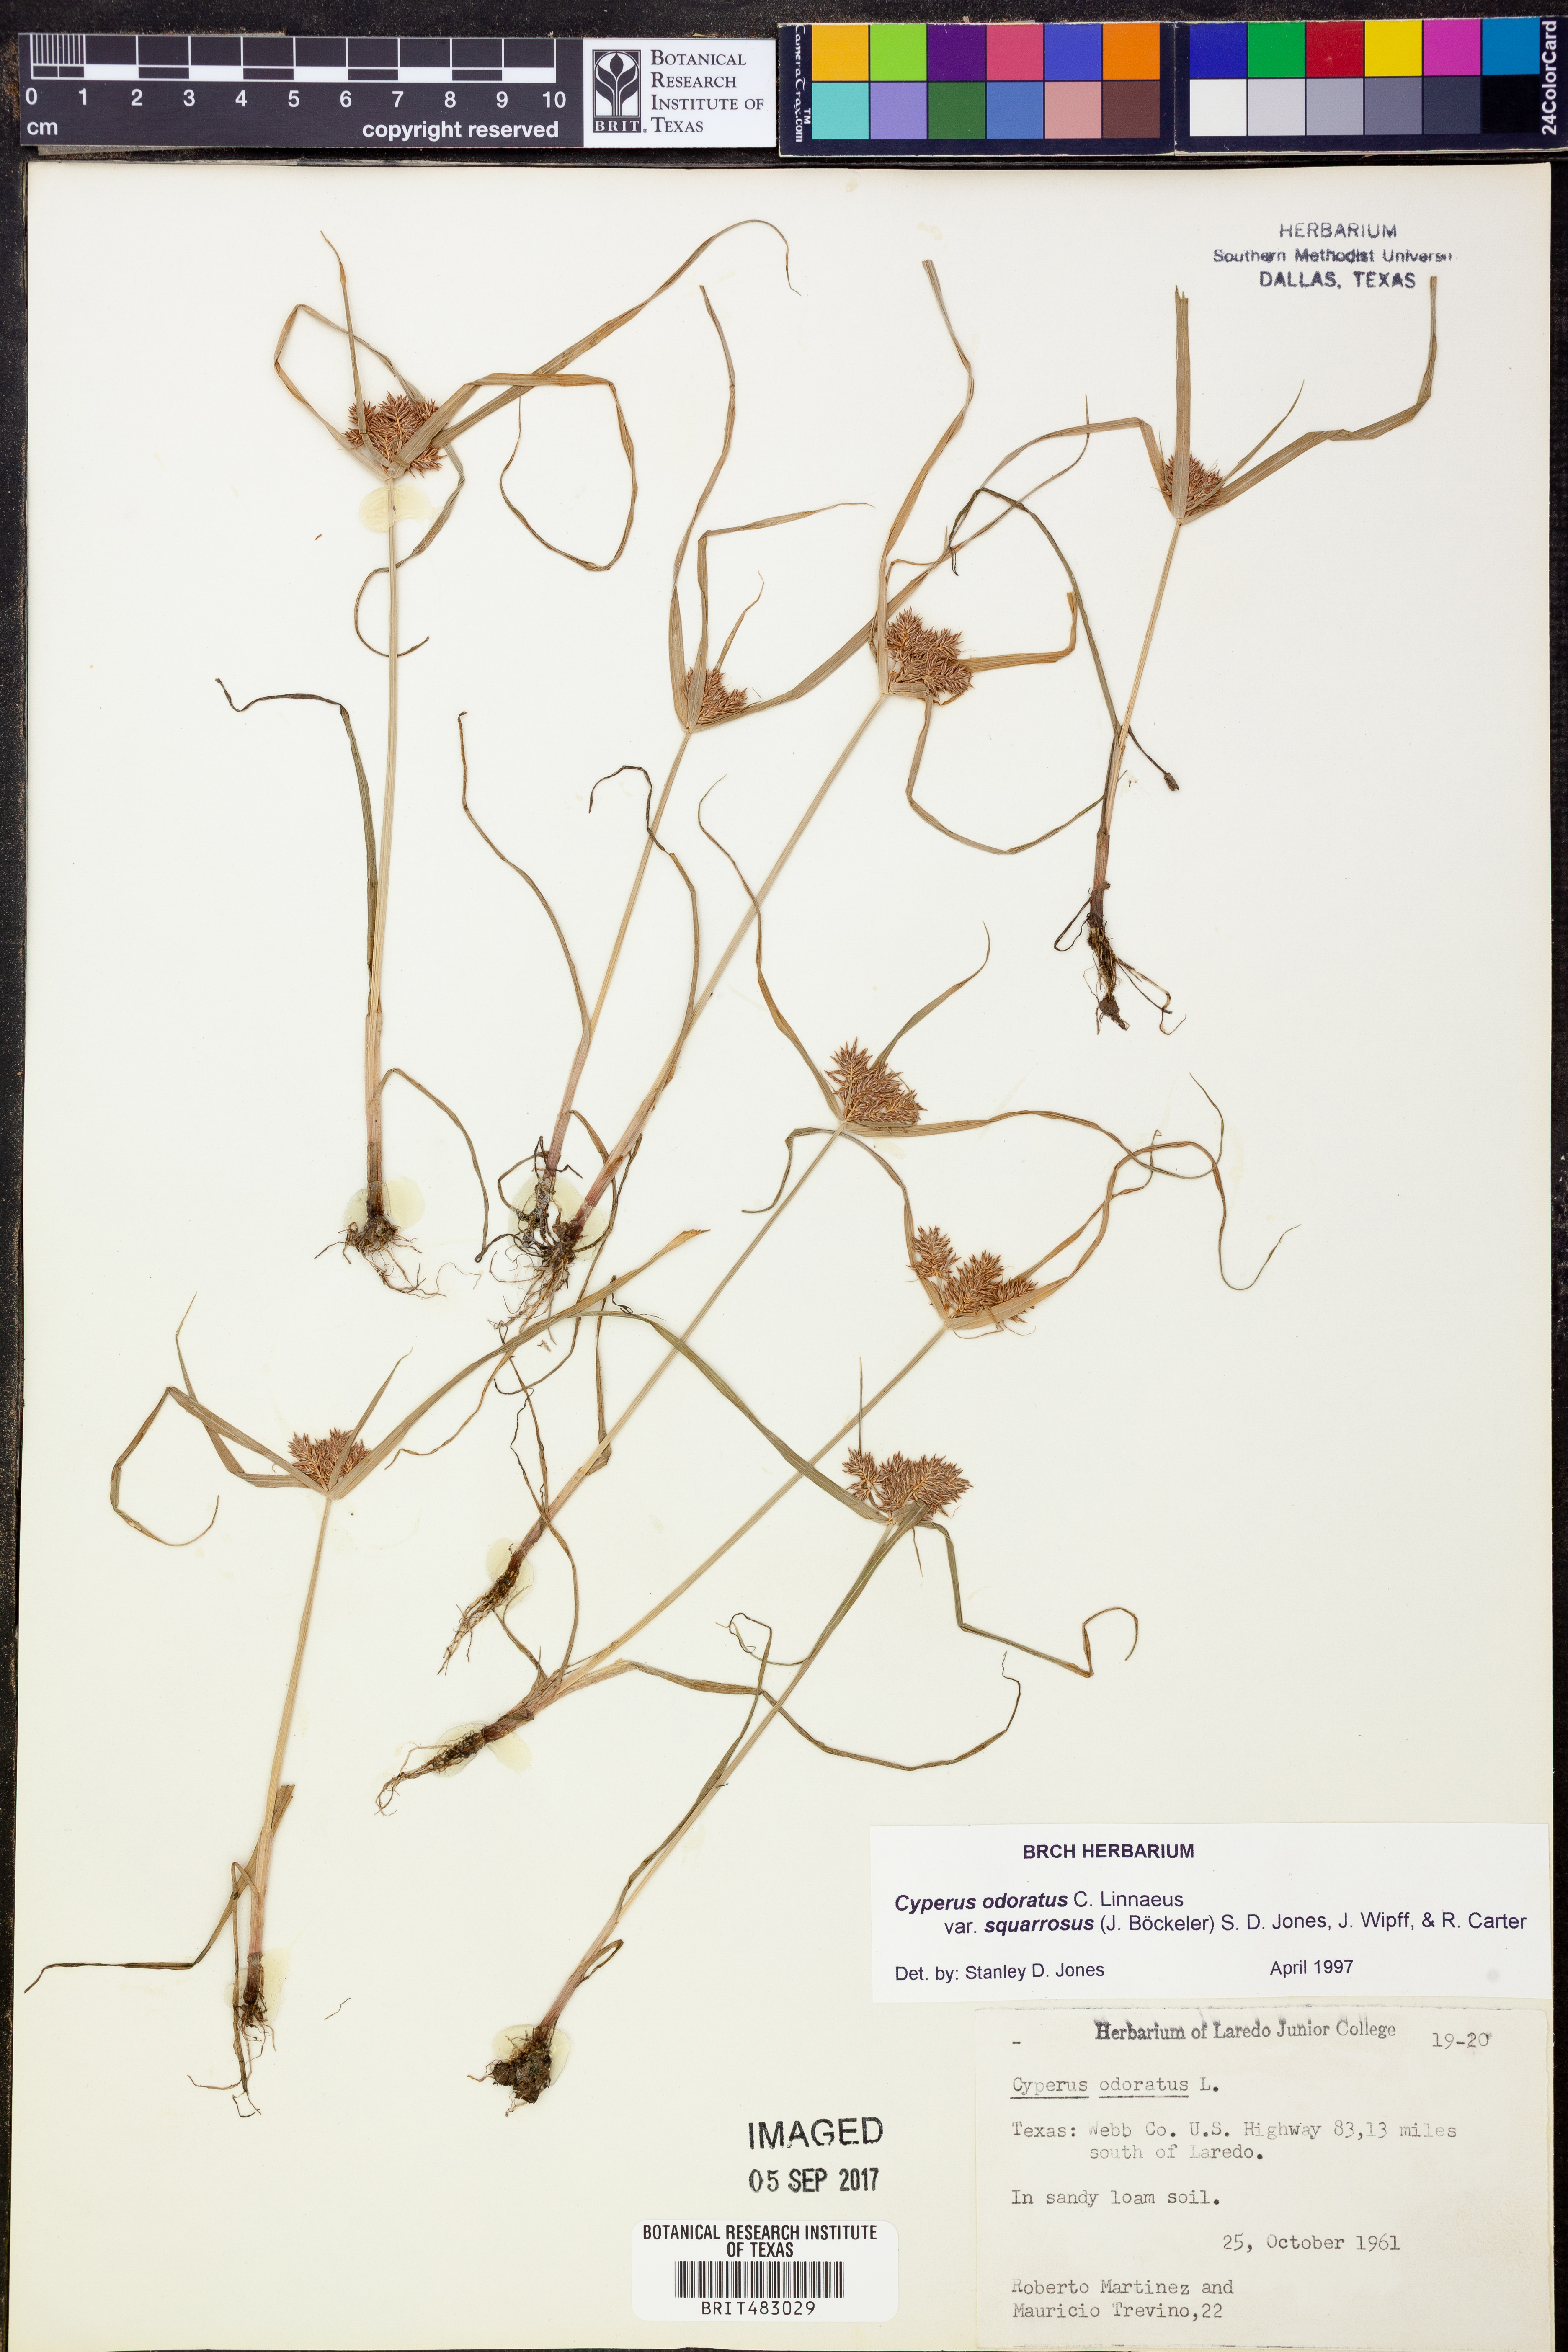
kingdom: Plantae
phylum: Tracheophyta
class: Liliopsida
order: Poales
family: Cyperaceae
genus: Cyperus
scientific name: Cyperus odoratus
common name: Fragrant flatsedge
